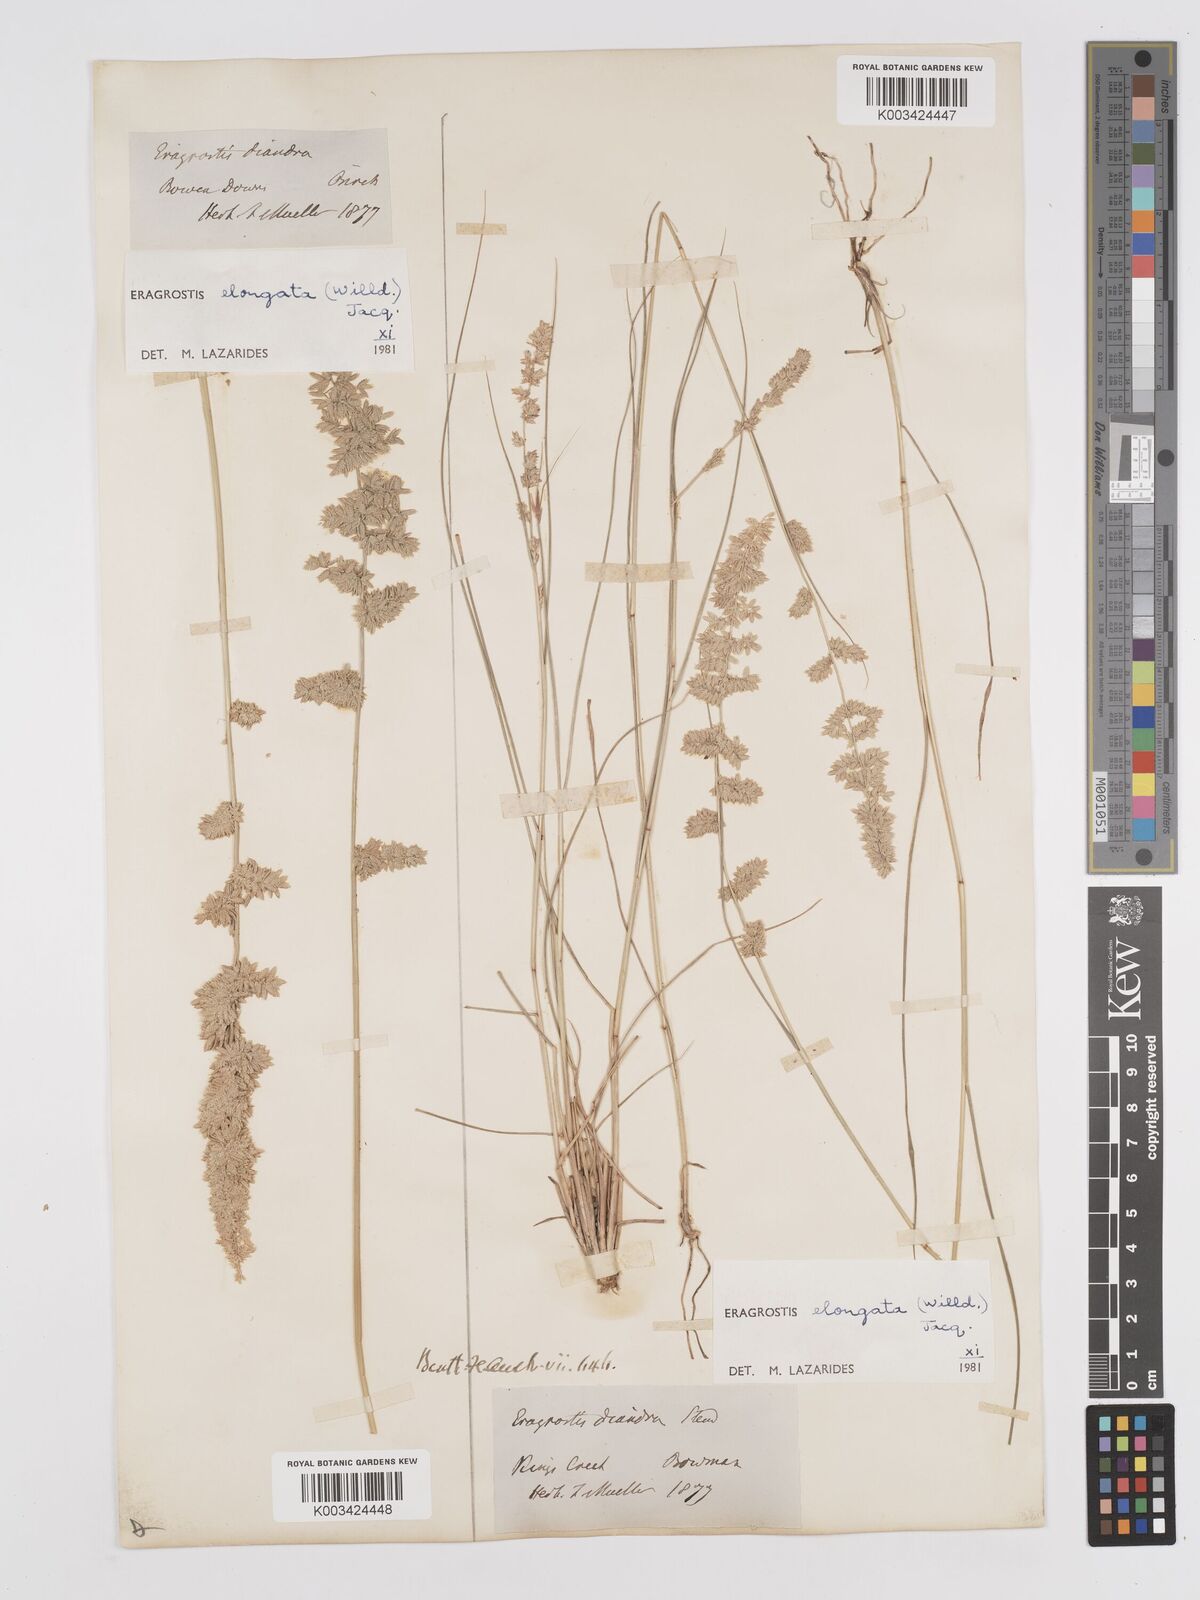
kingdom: Plantae
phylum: Tracheophyta
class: Liliopsida
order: Poales
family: Poaceae
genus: Eragrostis
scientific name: Eragrostis elongata
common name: Long lovegrass
